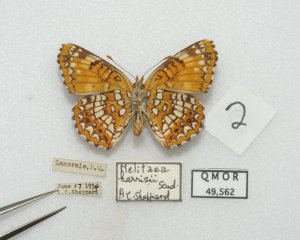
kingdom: Animalia
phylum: Arthropoda
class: Insecta
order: Lepidoptera
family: Nymphalidae
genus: Chlosyne
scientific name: Chlosyne harrisii
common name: Harris's Checkerspot
